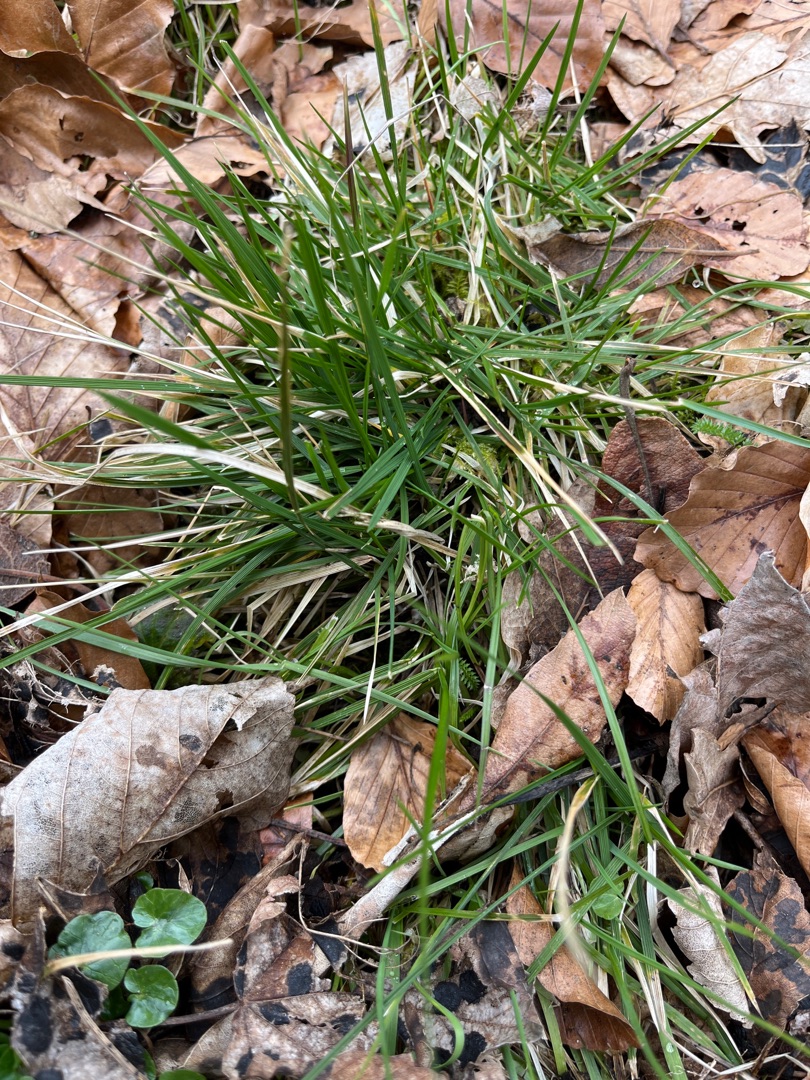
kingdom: Plantae
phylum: Tracheophyta
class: Liliopsida
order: Poales
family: Poaceae
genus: Deschampsia
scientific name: Deschampsia cespitosa
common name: Mose-bunke
